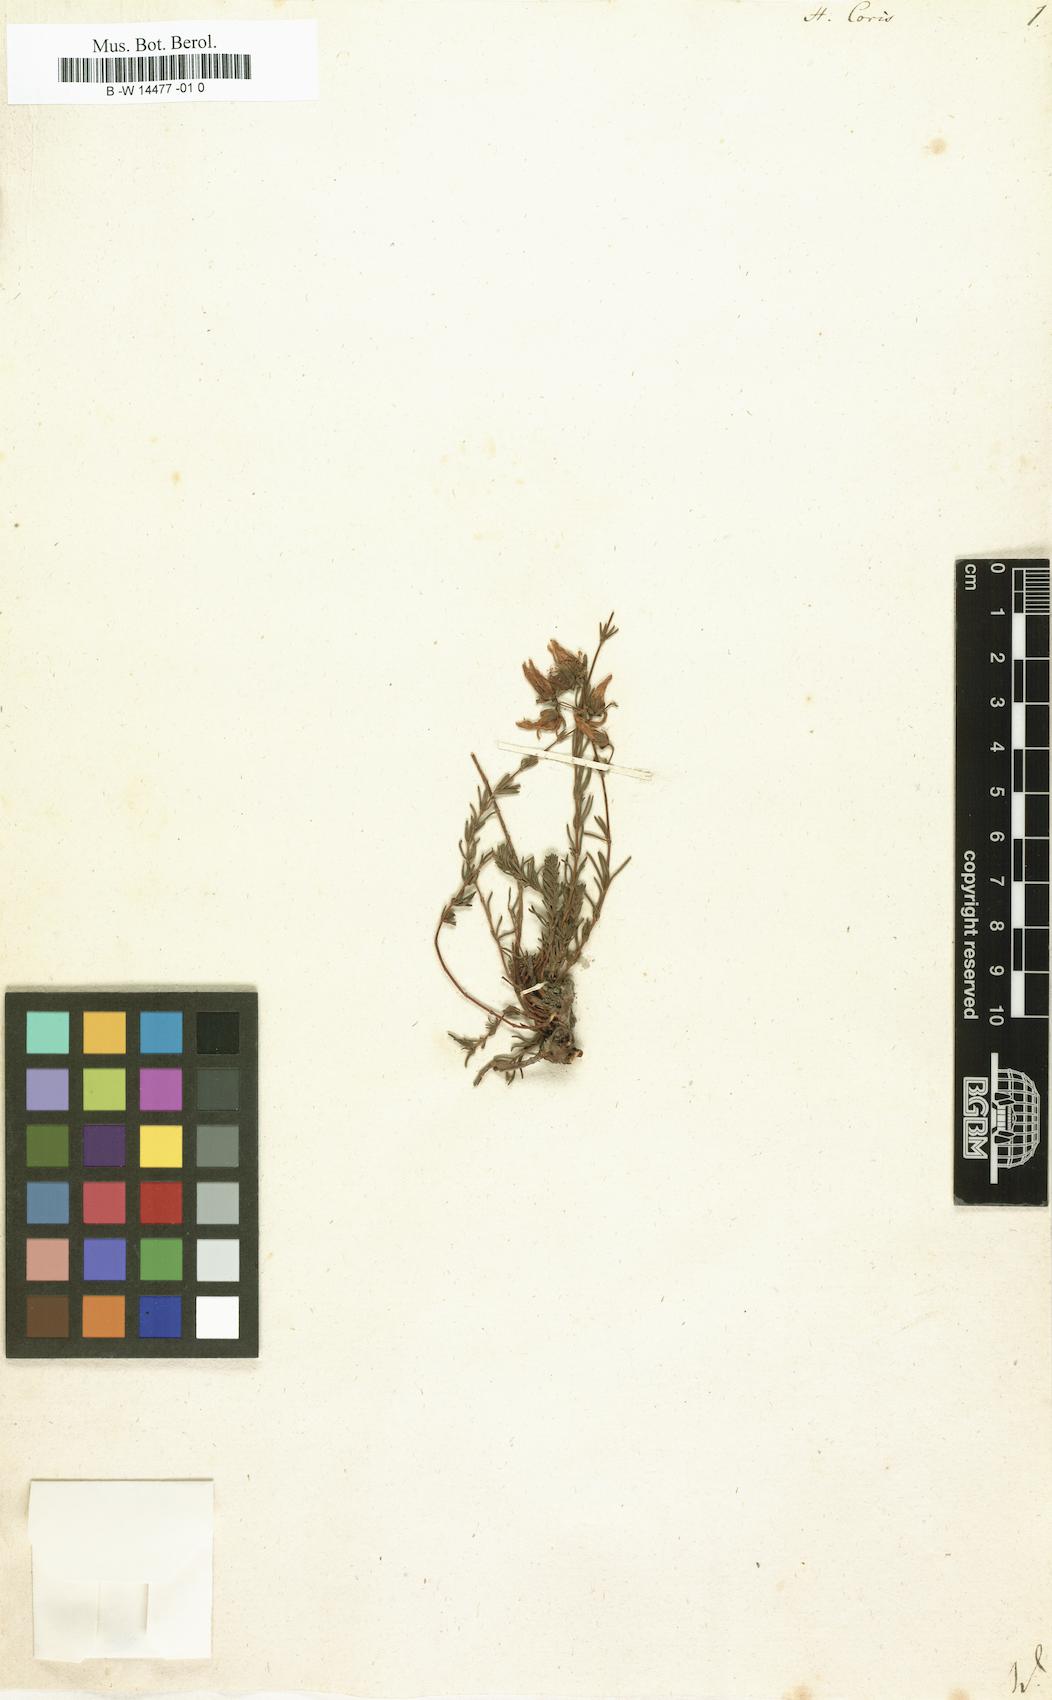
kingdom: Plantae
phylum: Tracheophyta
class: Magnoliopsida
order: Malpighiales
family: Hypericaceae
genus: Hypericum
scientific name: Hypericum coris
